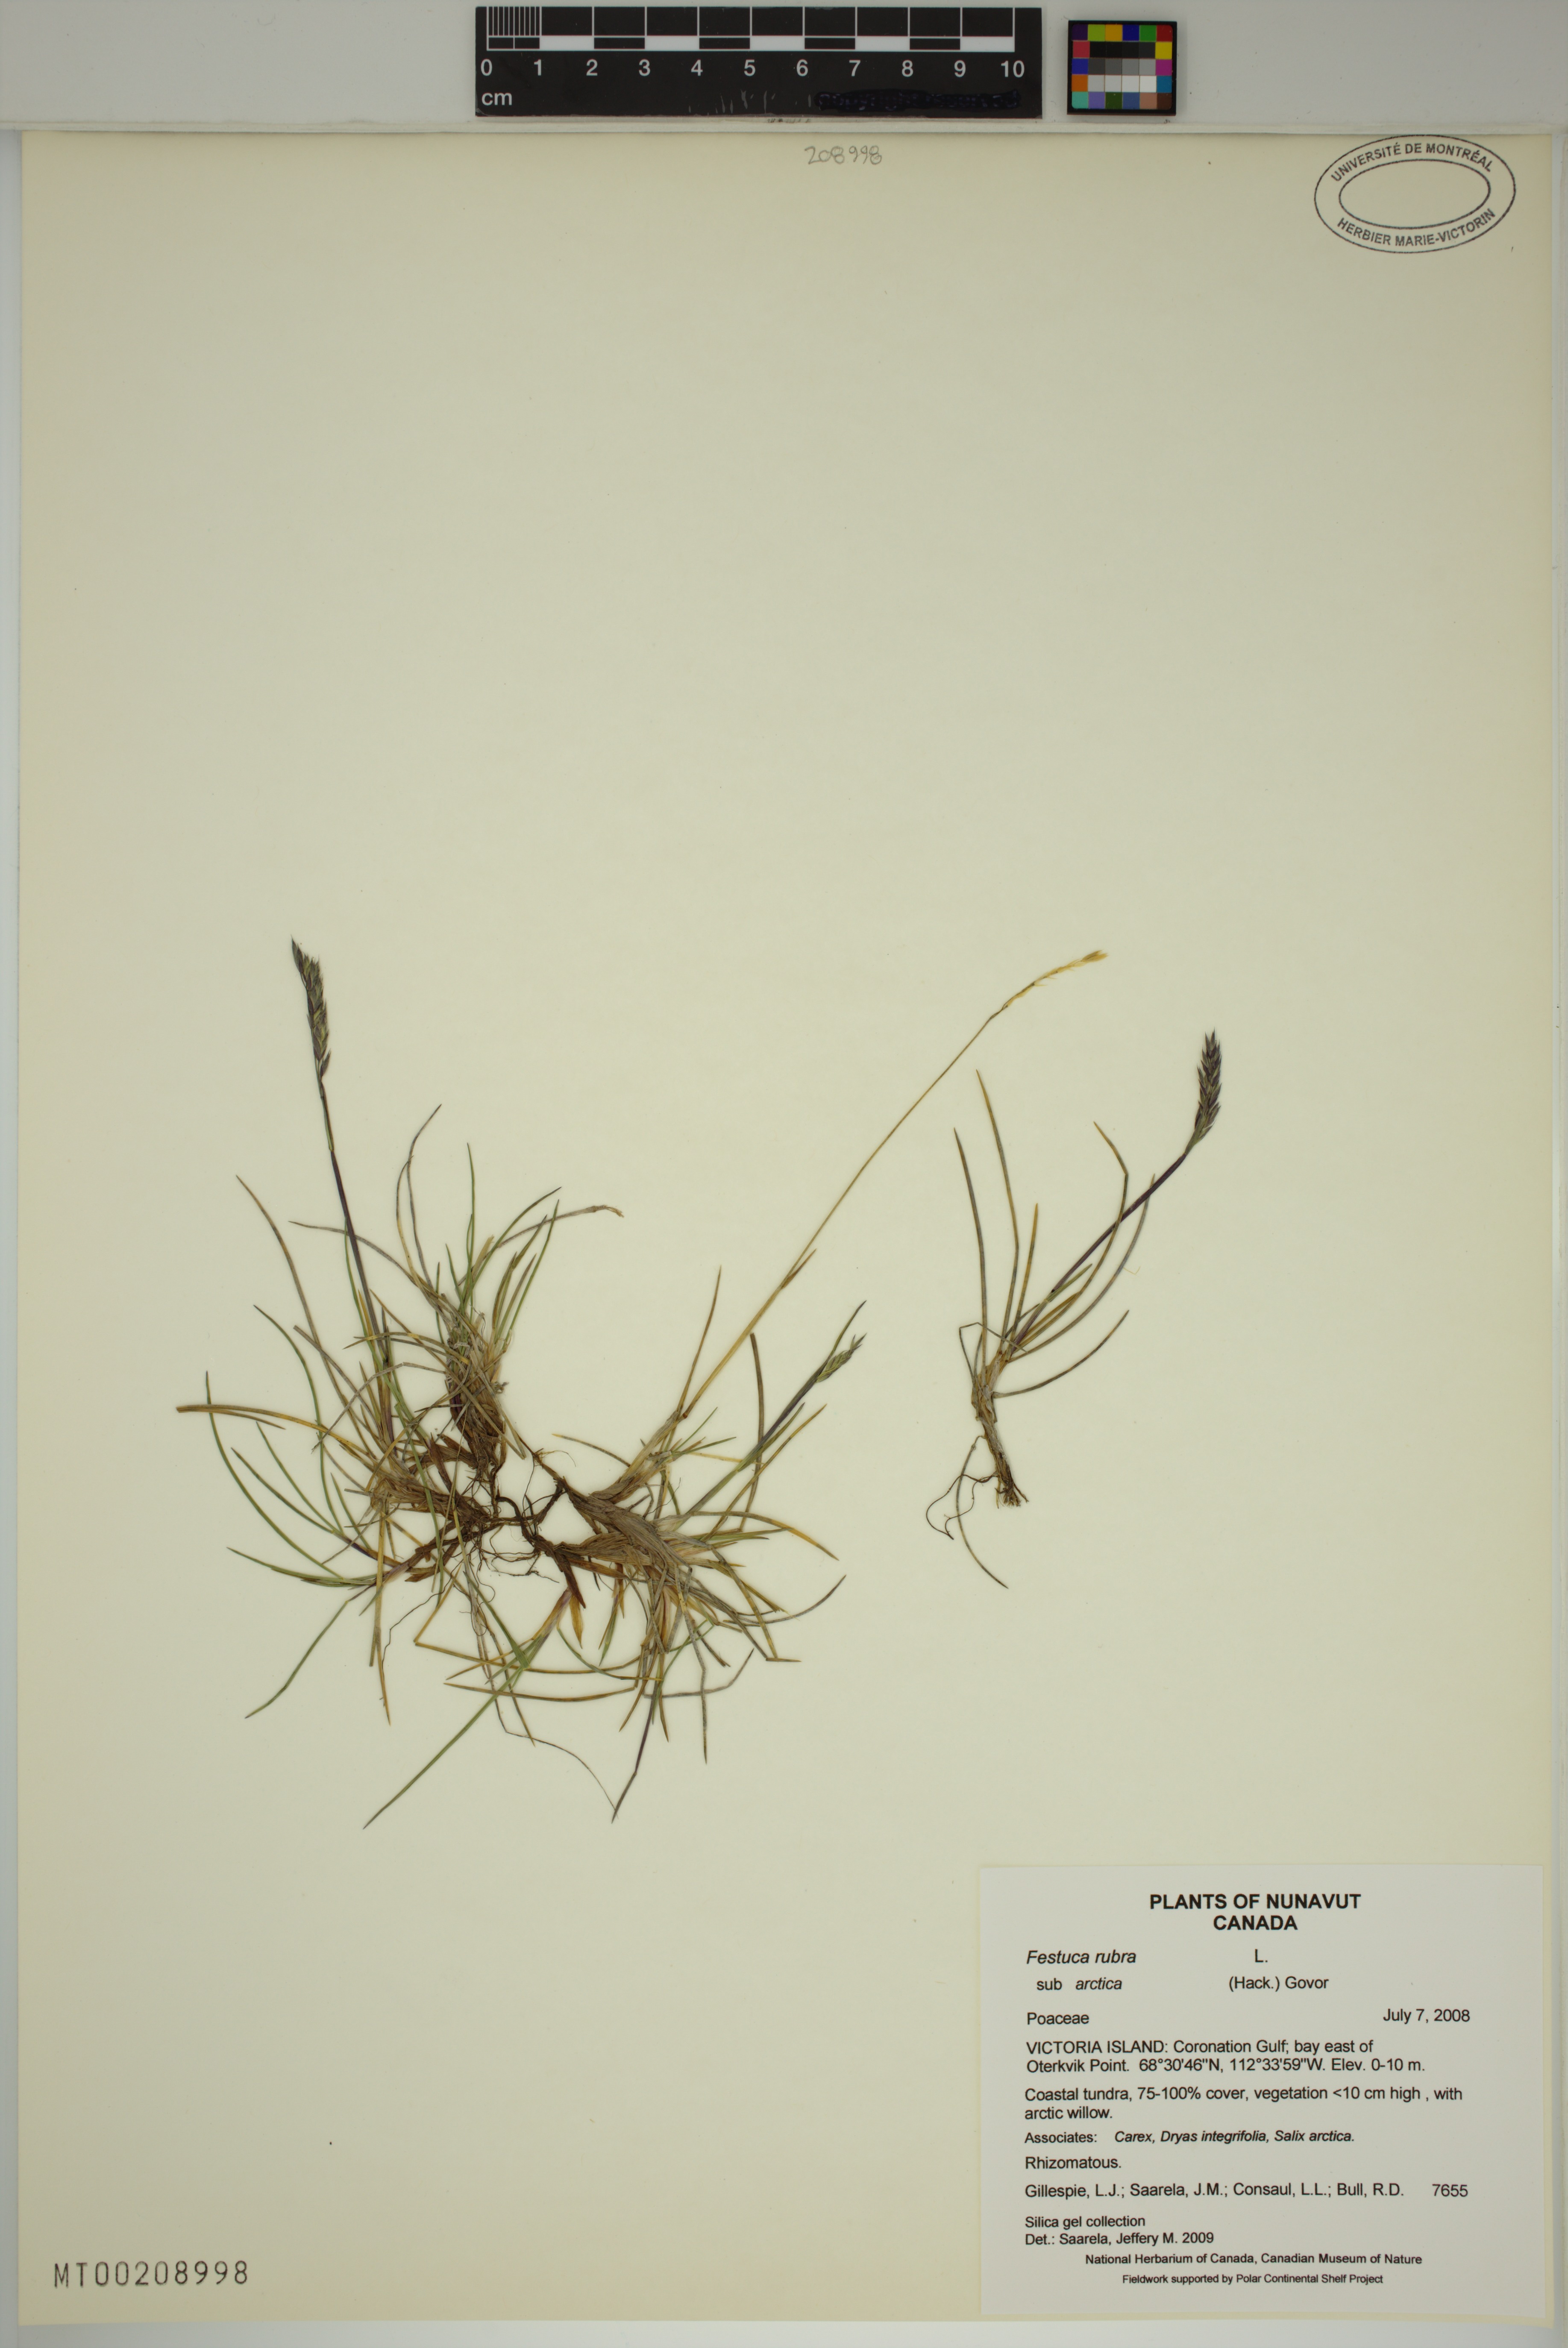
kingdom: Plantae
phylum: Tracheophyta
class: Liliopsida
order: Poales
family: Poaceae
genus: Festuca
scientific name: Festuca richardsonii
